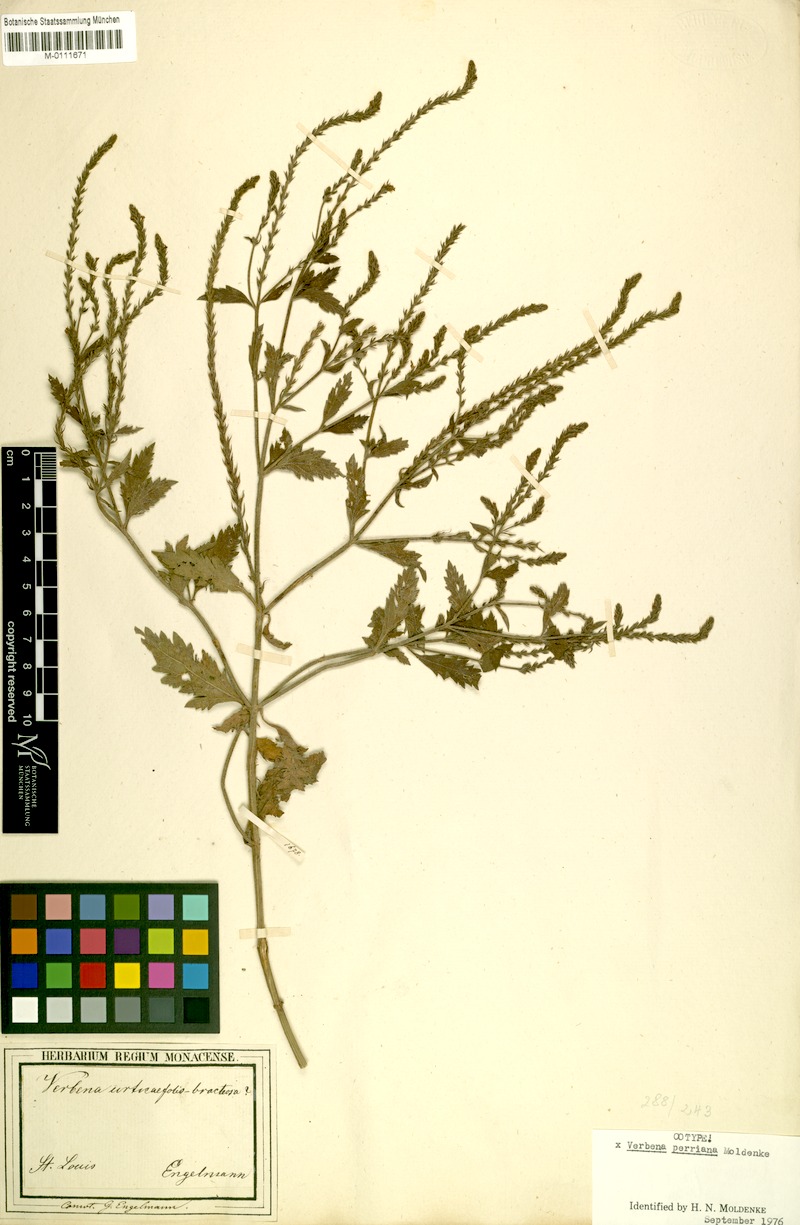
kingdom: Plantae
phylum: Tracheophyta
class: Magnoliopsida
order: Lamiales
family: Verbenaceae
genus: Verbena
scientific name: Verbena perriana
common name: Perry's vervain
